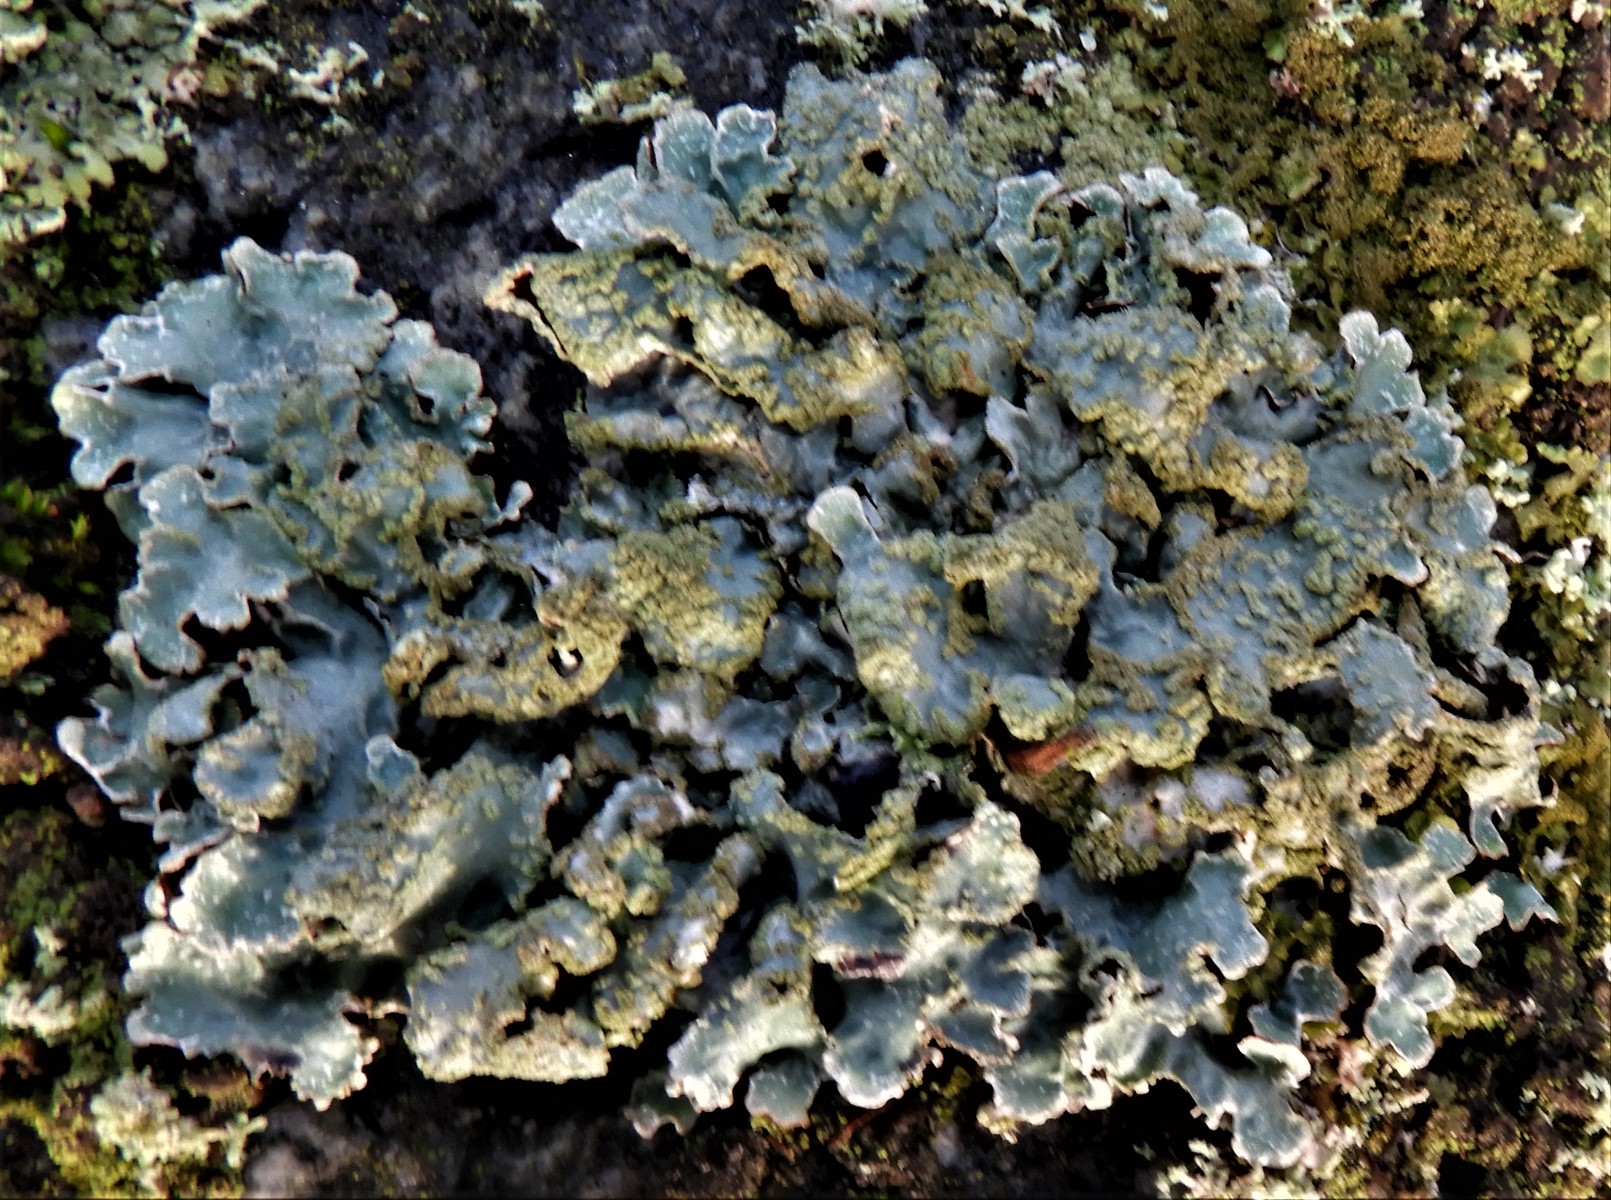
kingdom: Fungi
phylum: Ascomycota
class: Lecanoromycetes
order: Lecanorales
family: Parmeliaceae
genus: Parmelia
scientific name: Parmelia sulcata
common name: rynket skållav
